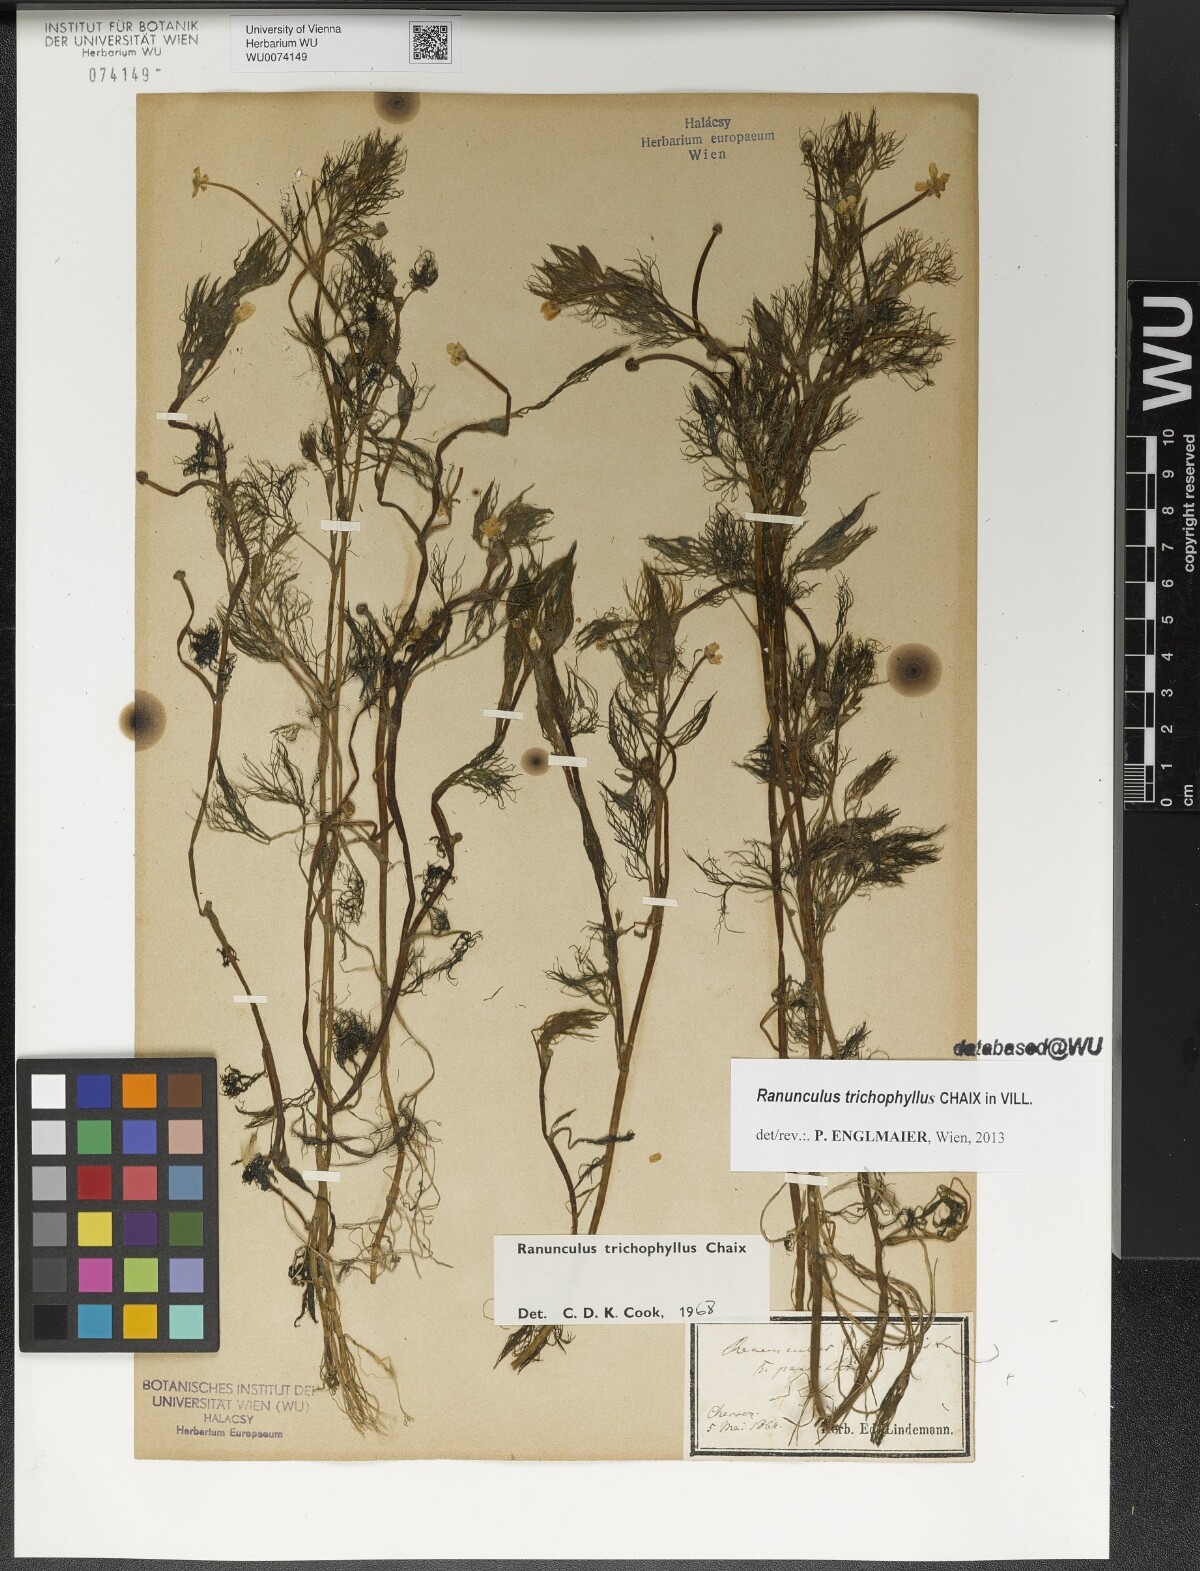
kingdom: Plantae
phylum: Tracheophyta
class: Magnoliopsida
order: Ranunculales
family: Ranunculaceae
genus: Ranunculus
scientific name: Ranunculus trichophyllus
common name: Thread-leaved water-crowfoot
